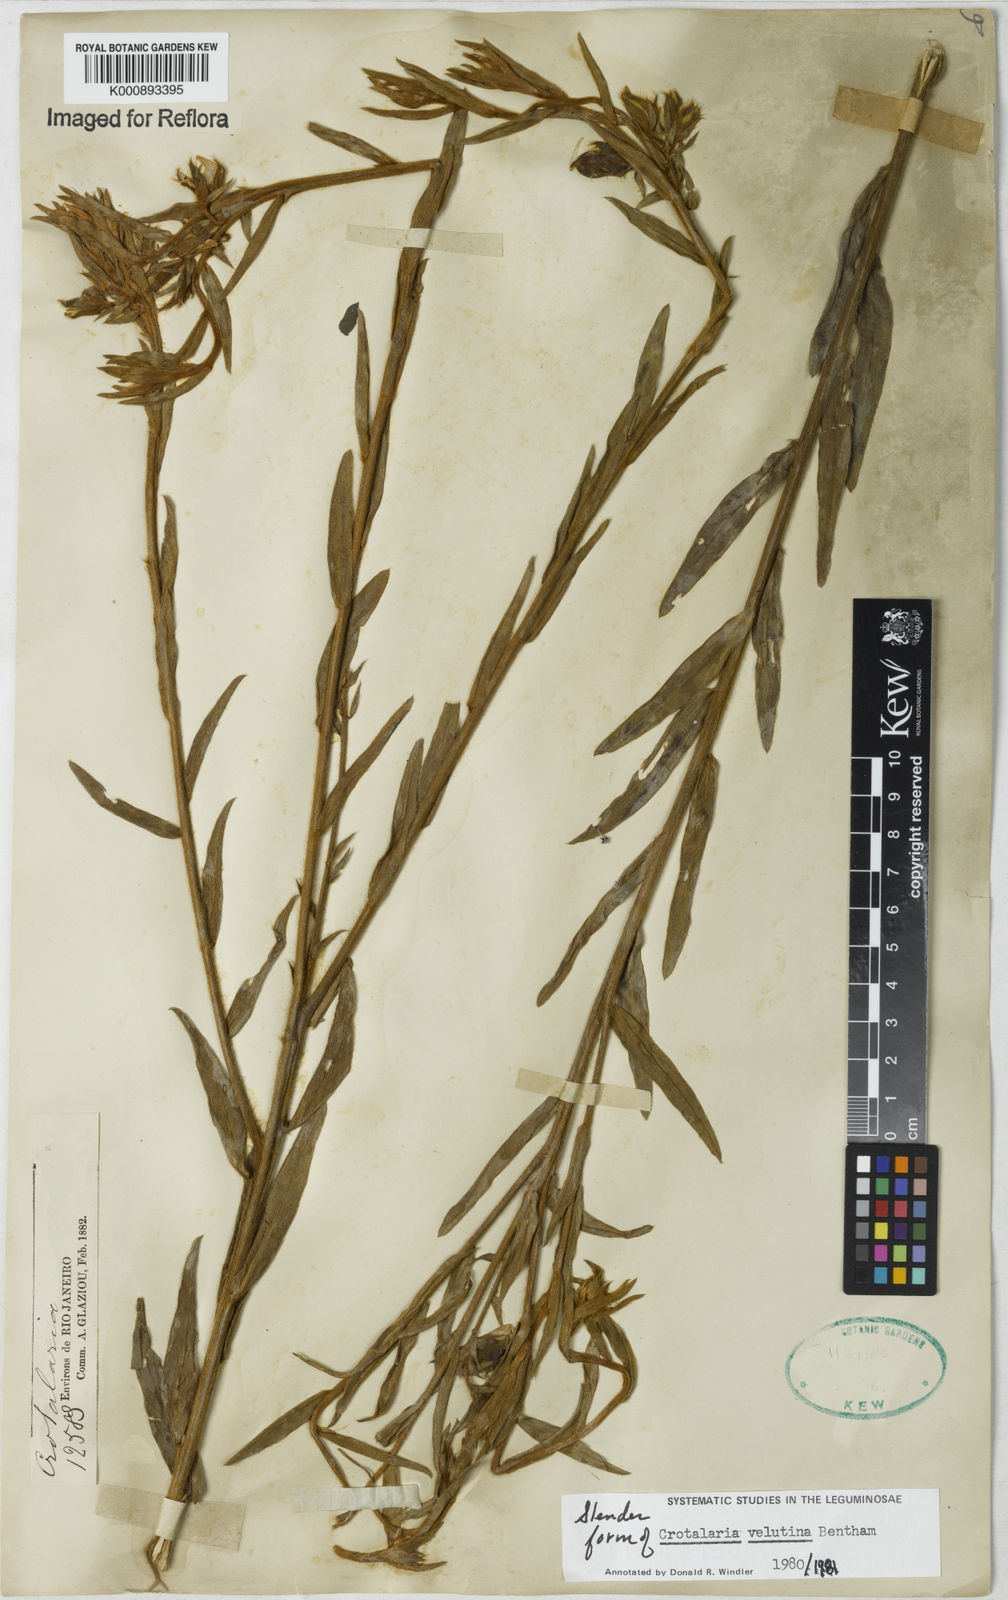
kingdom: Plantae
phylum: Tracheophyta
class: Magnoliopsida
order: Fabales
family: Fabaceae
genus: Crotalaria
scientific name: Crotalaria velutina
